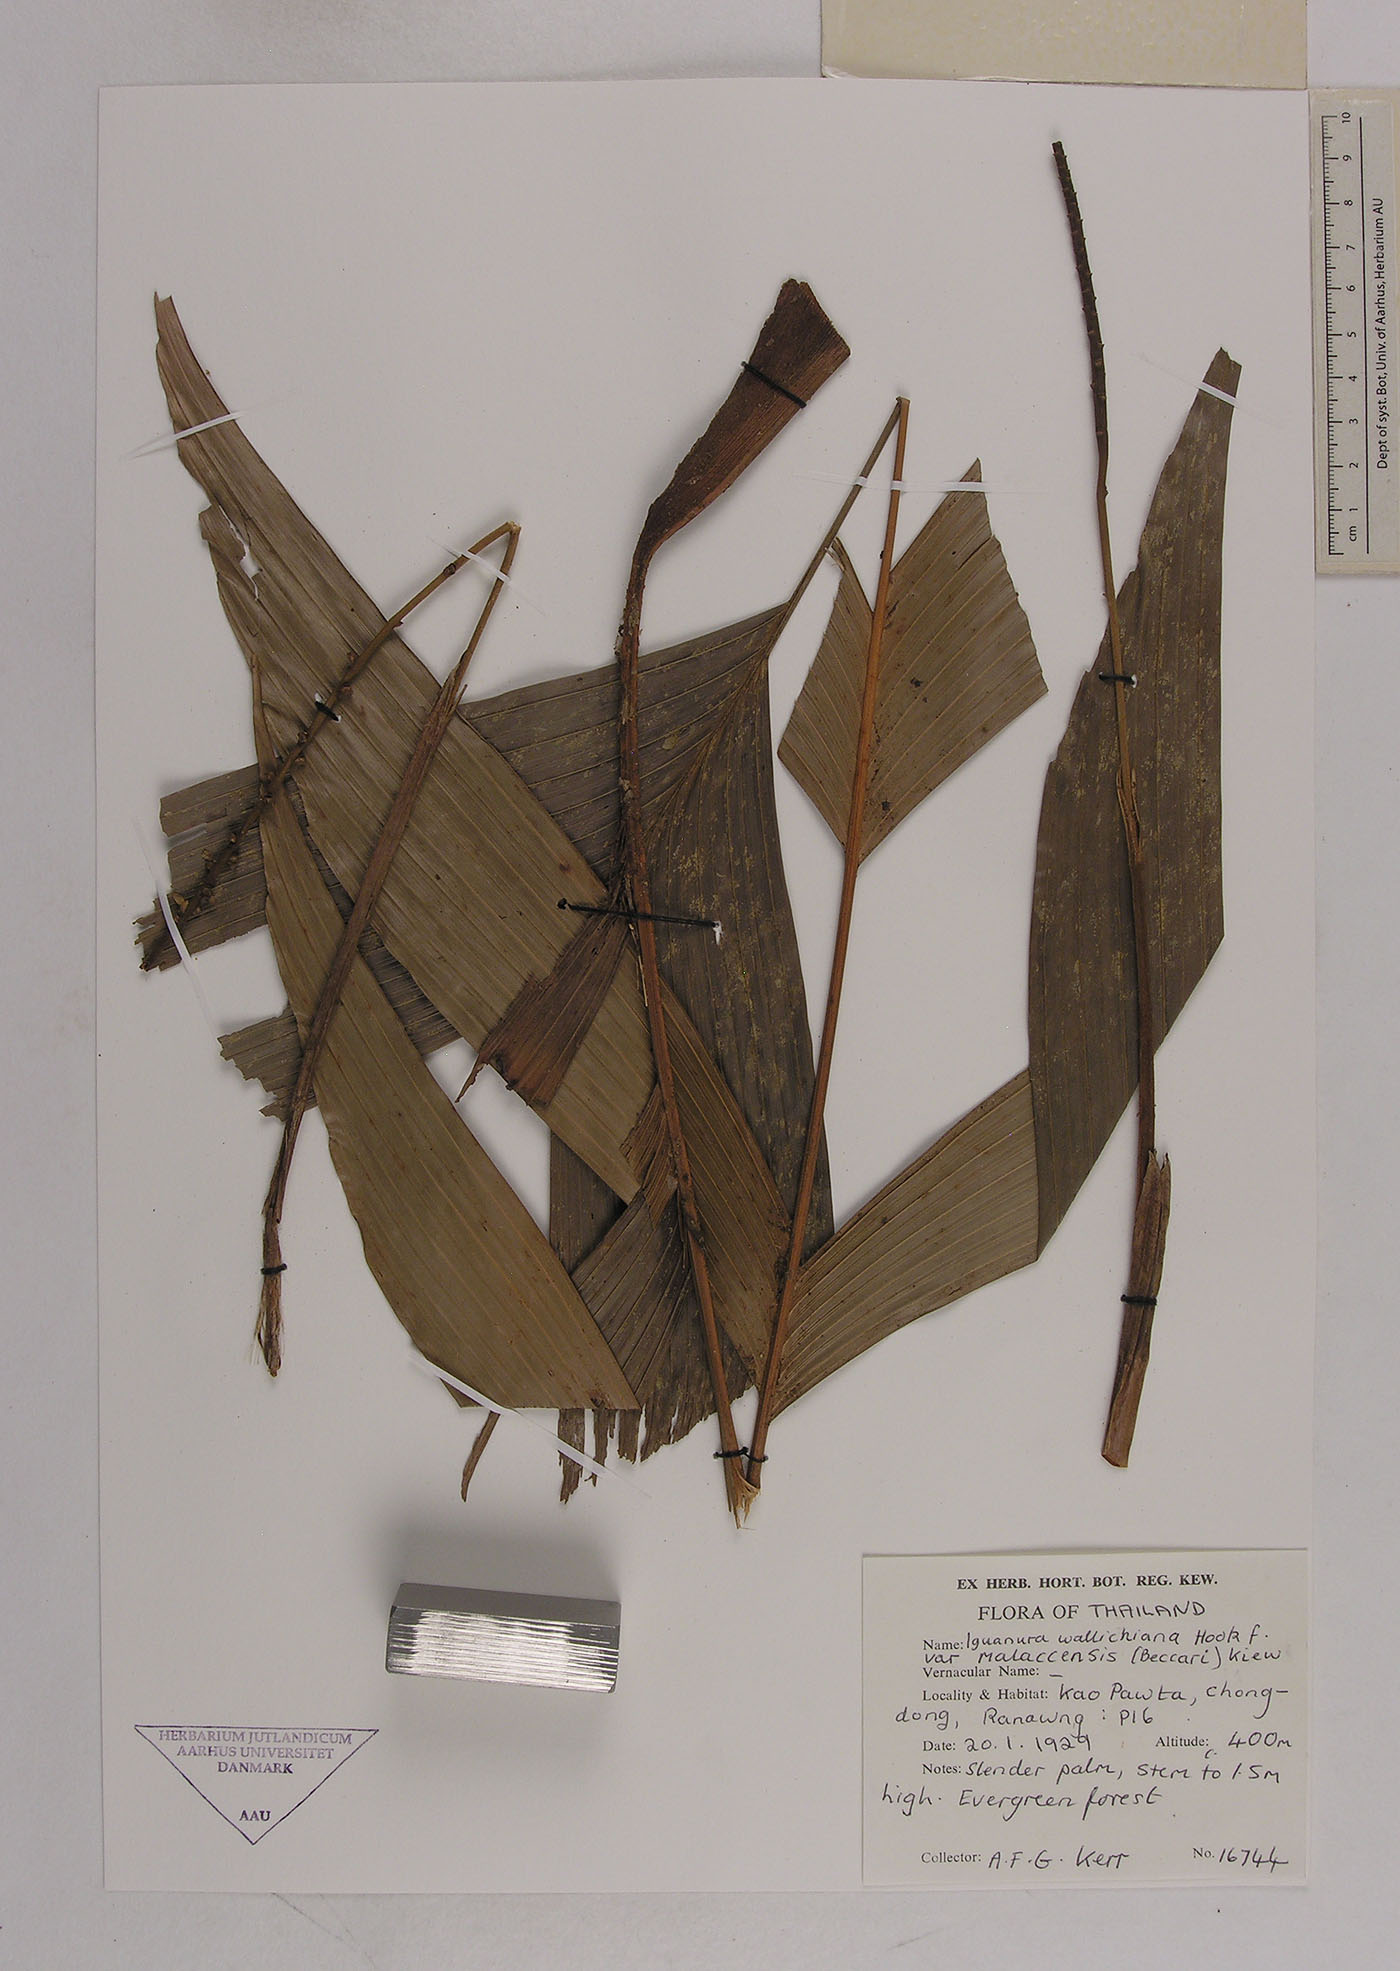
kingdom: Plantae
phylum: Tracheophyta
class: Liliopsida
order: Arecales
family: Arecaceae
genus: Iguanura
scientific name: Iguanura geonomiformis
